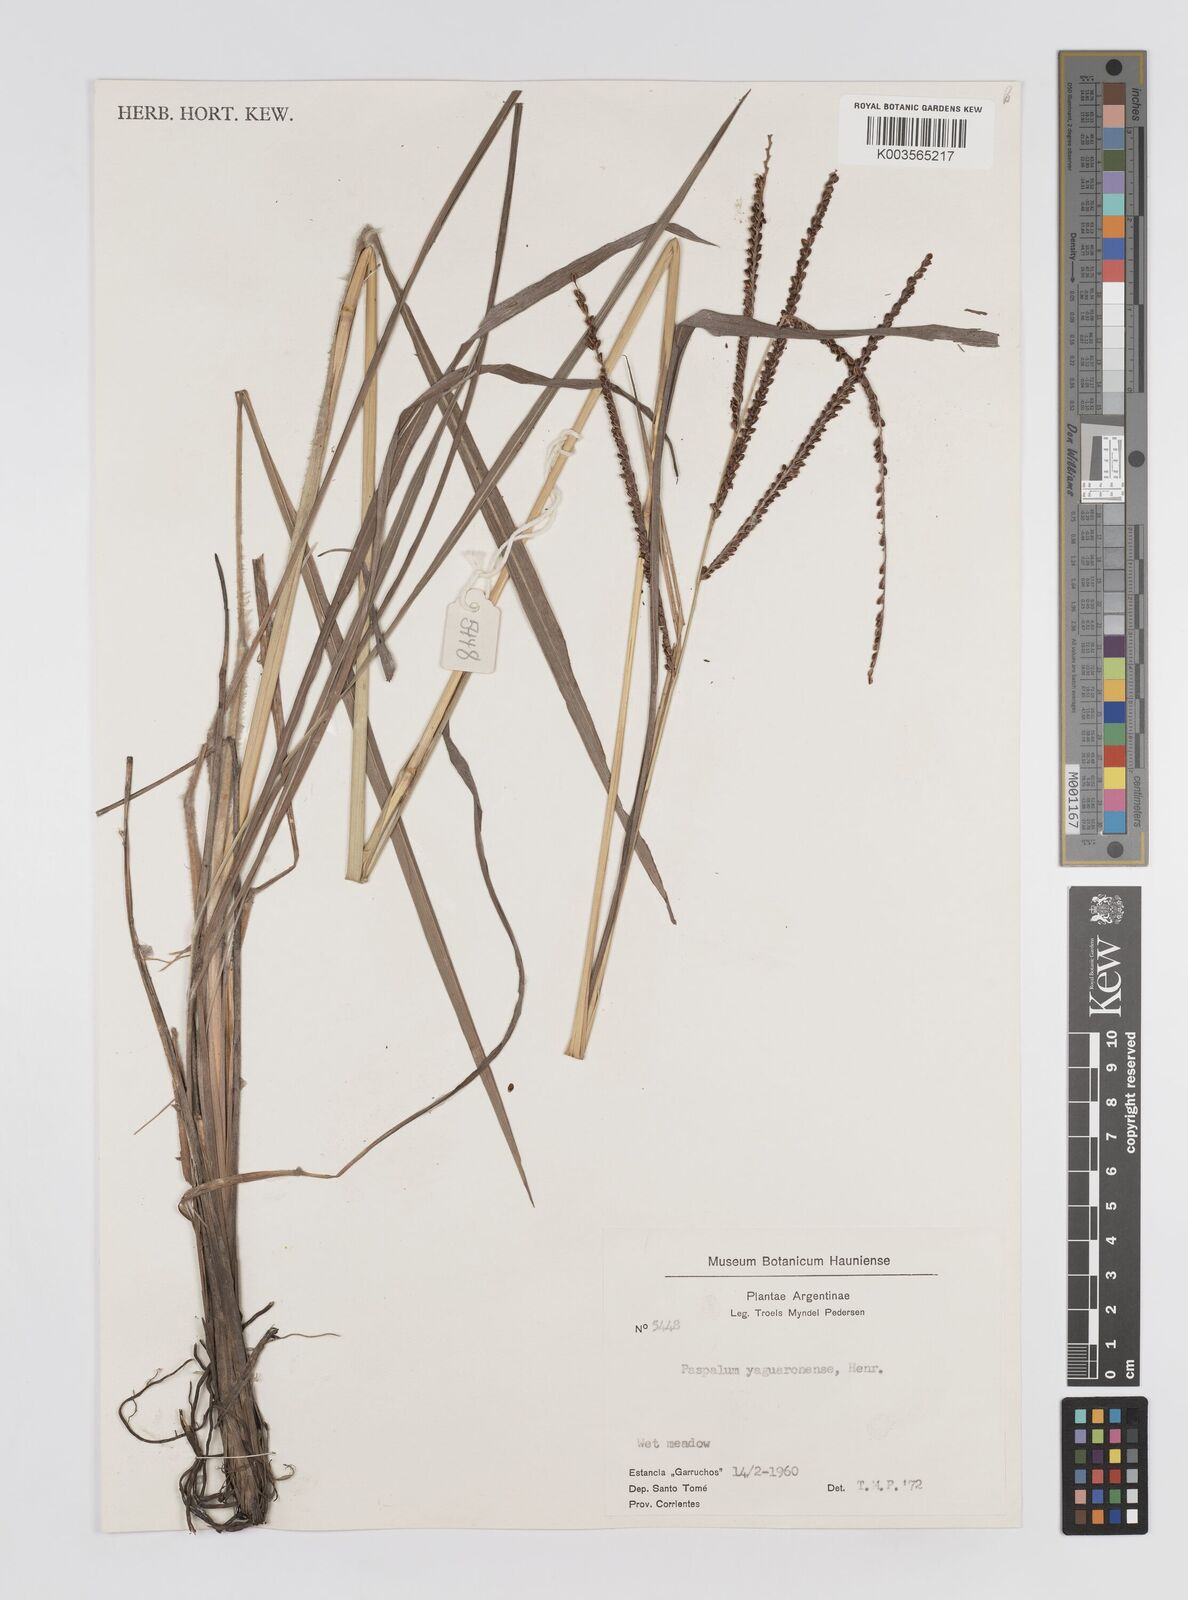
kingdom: Plantae
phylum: Tracheophyta
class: Liliopsida
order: Poales
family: Poaceae
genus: Paspalum
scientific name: Paspalum glaucescens
